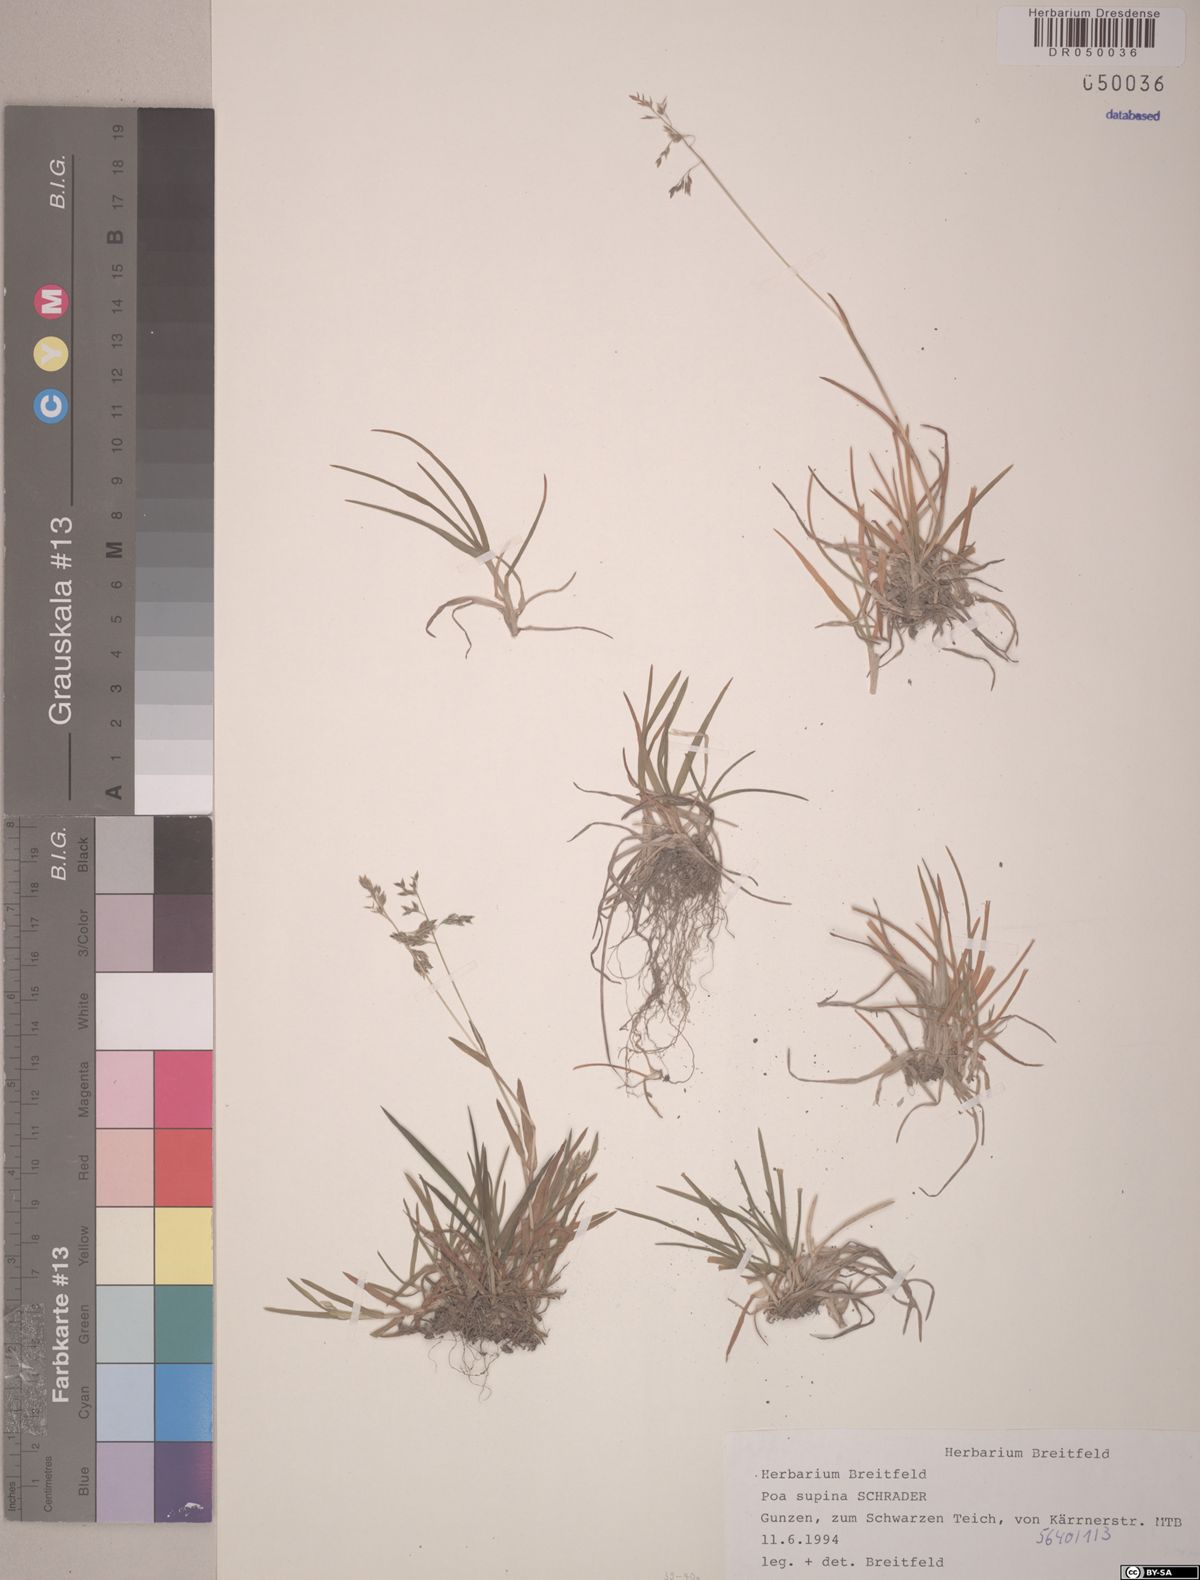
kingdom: Plantae
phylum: Tracheophyta
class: Liliopsida
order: Poales
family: Poaceae
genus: Poa
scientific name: Poa supina
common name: Supina bluegrass
